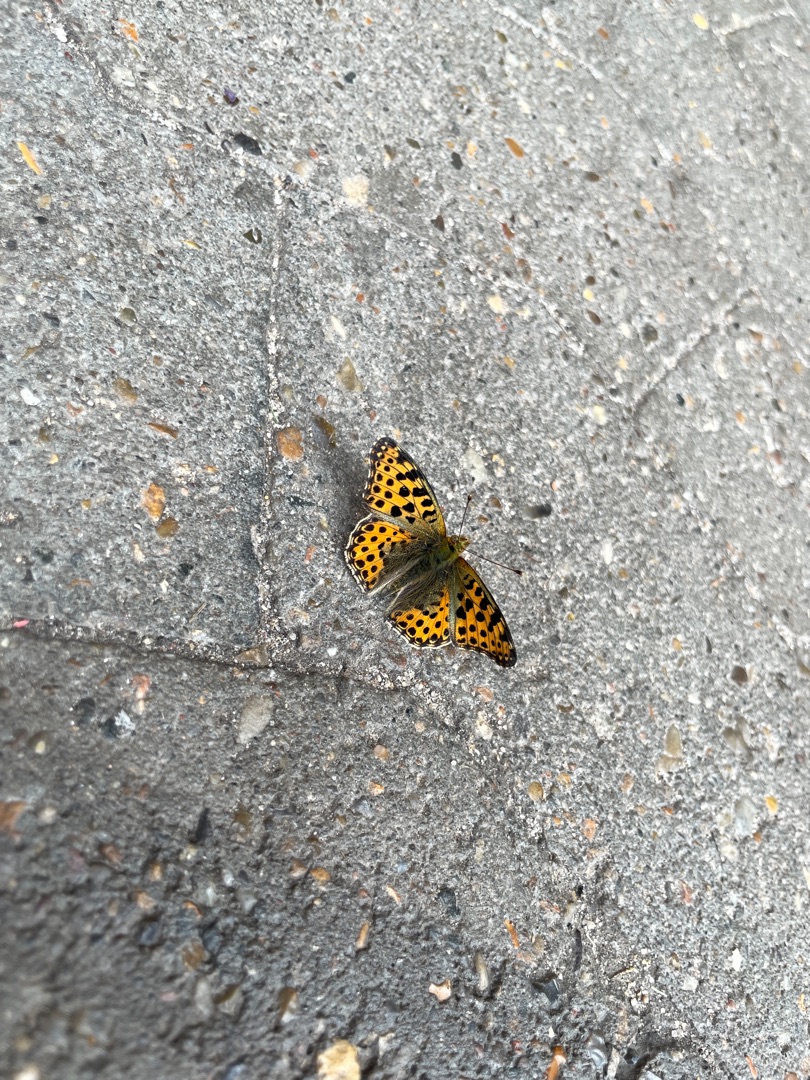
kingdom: Animalia
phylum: Arthropoda
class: Insecta
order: Lepidoptera
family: Nymphalidae
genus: Issoria
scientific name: Issoria lathonia
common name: Storplettet perlemorsommerfugl
